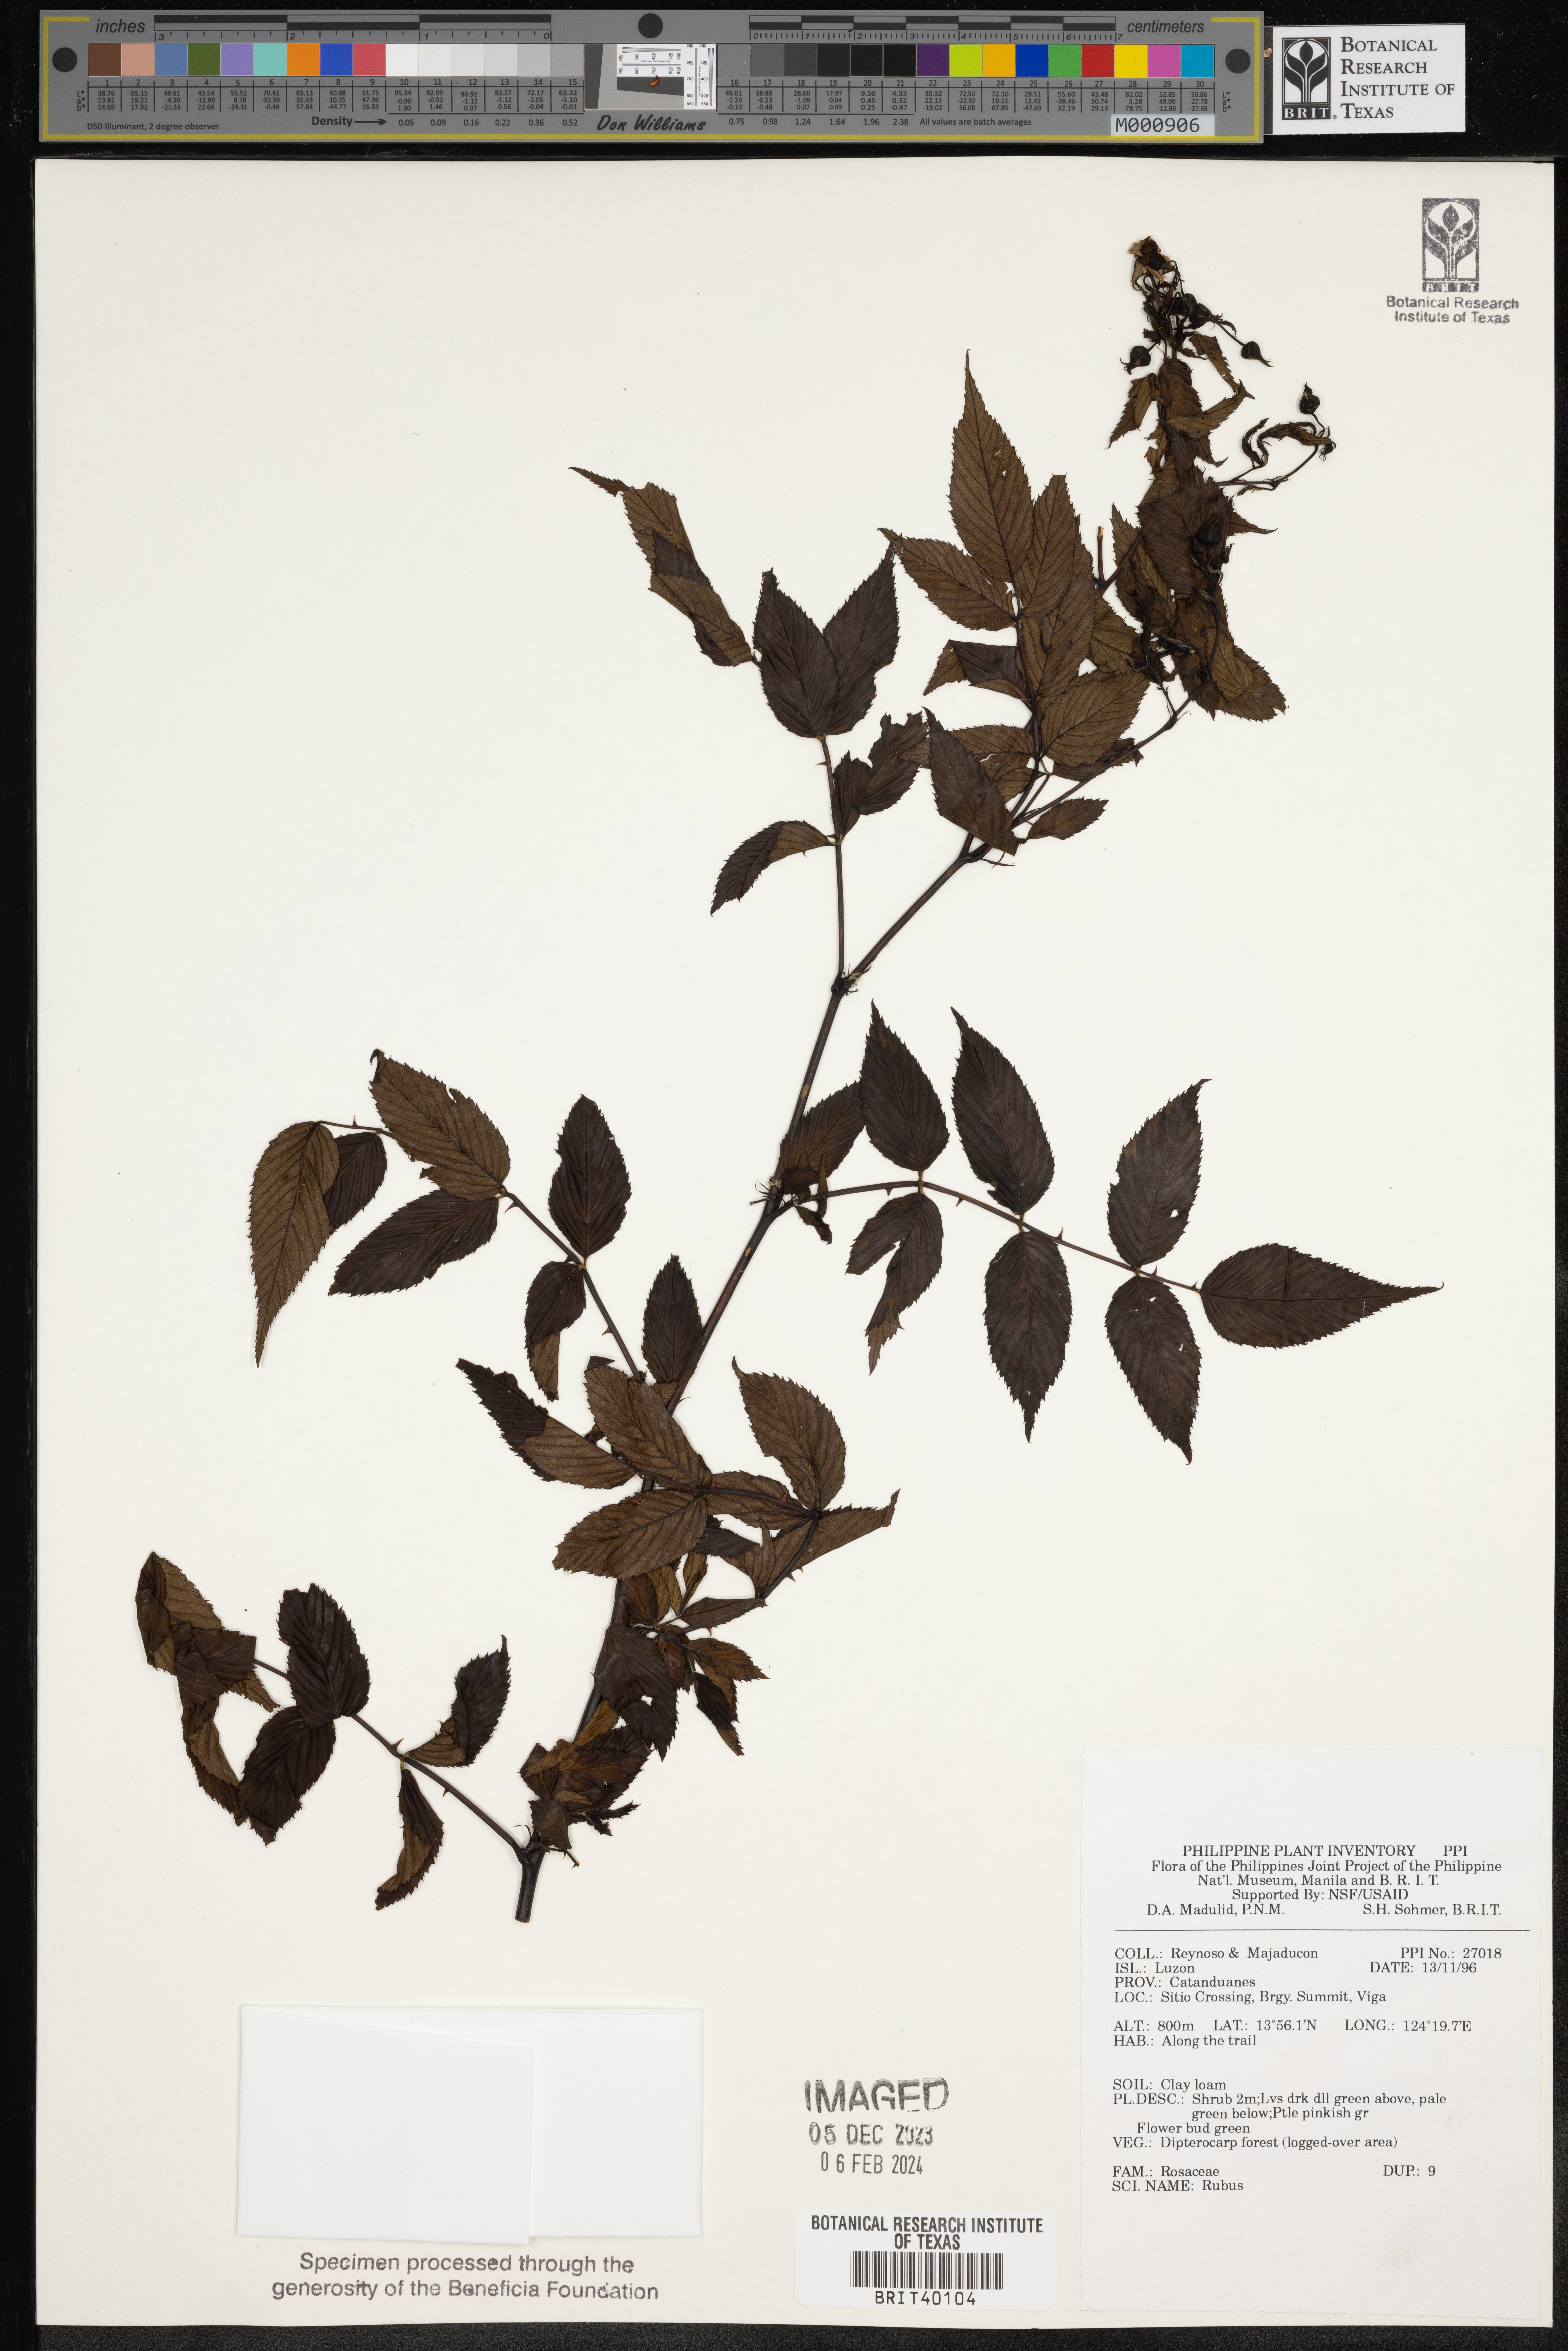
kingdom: Plantae
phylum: Tracheophyta
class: Magnoliopsida
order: Rosales
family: Rosaceae
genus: Rubus
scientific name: Rubus
